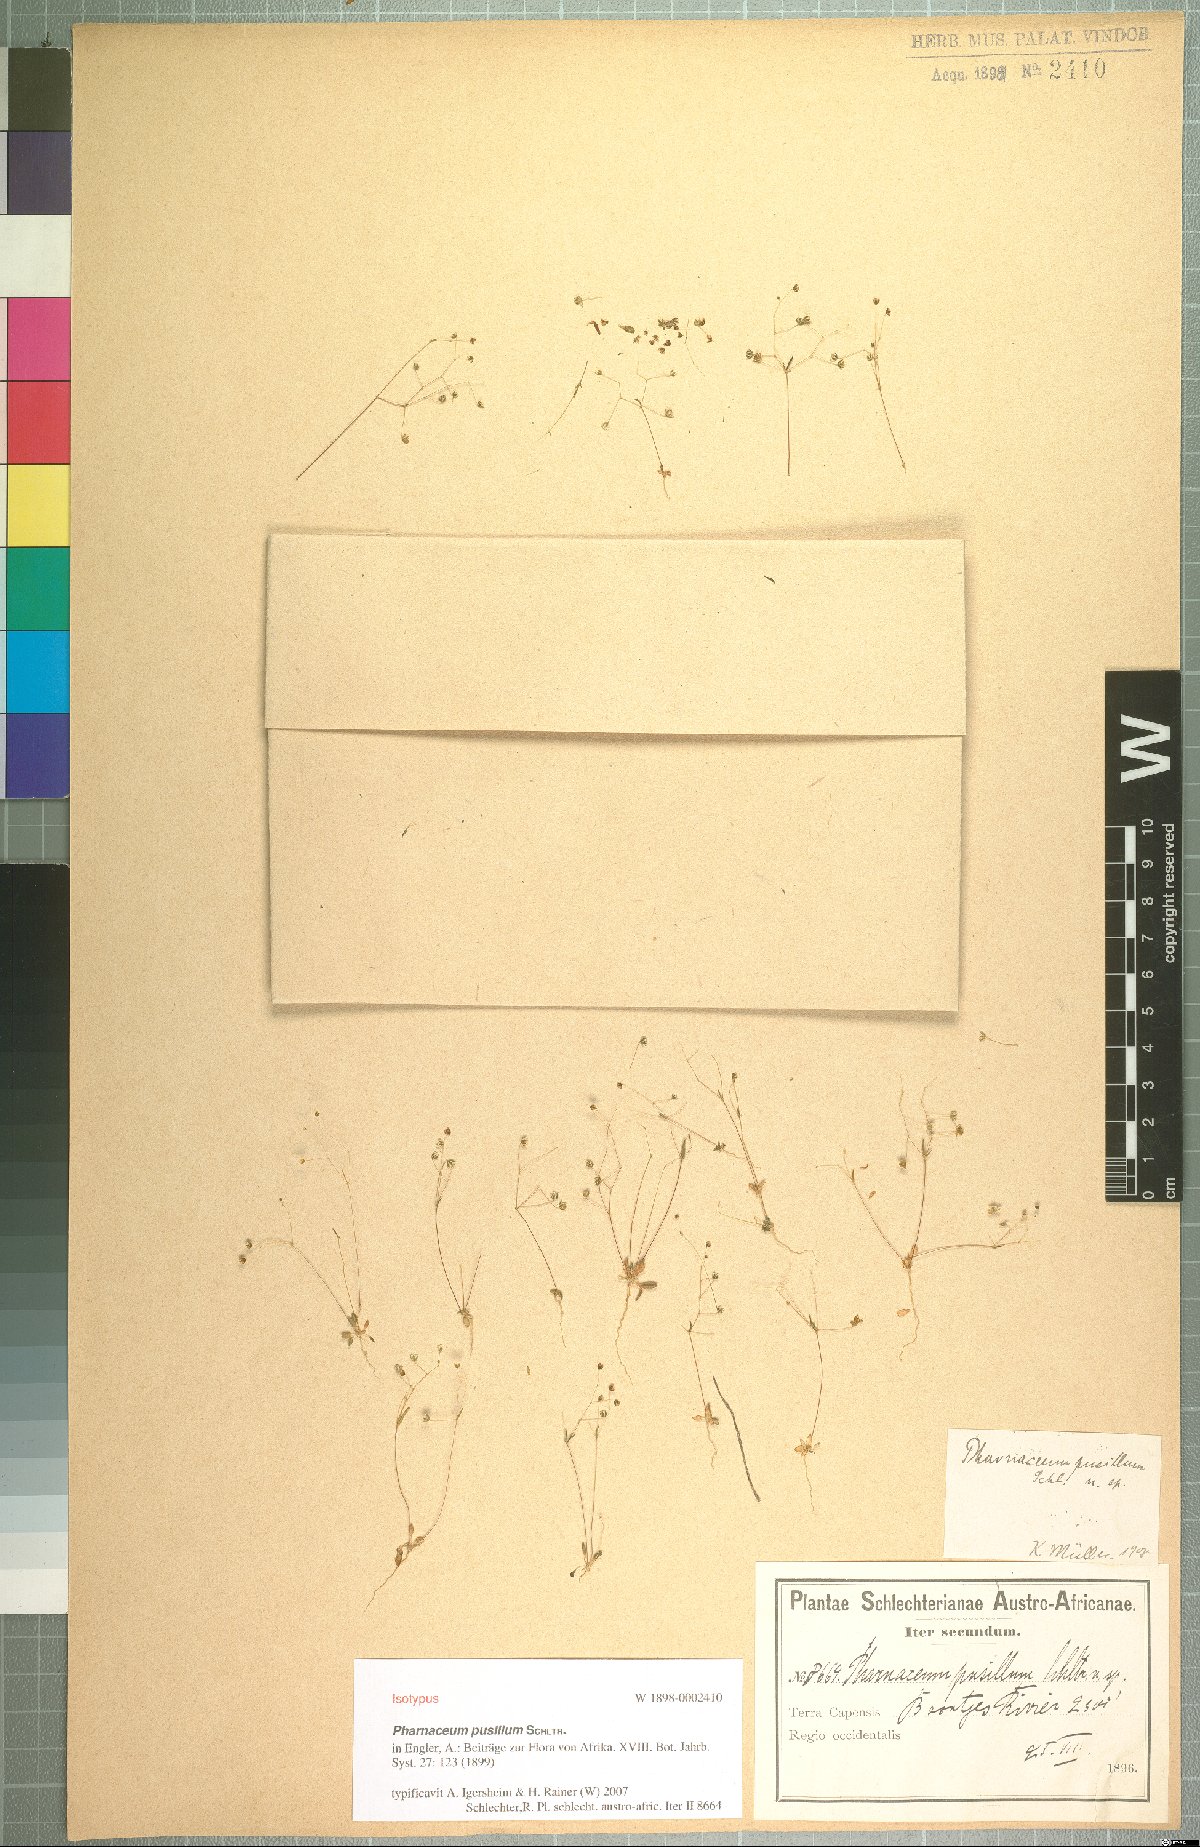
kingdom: Plantae
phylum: Tracheophyta
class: Magnoliopsida
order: Caryophyllales
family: Molluginaceae
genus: Hypertelis
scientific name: Hypertelis pusilla
